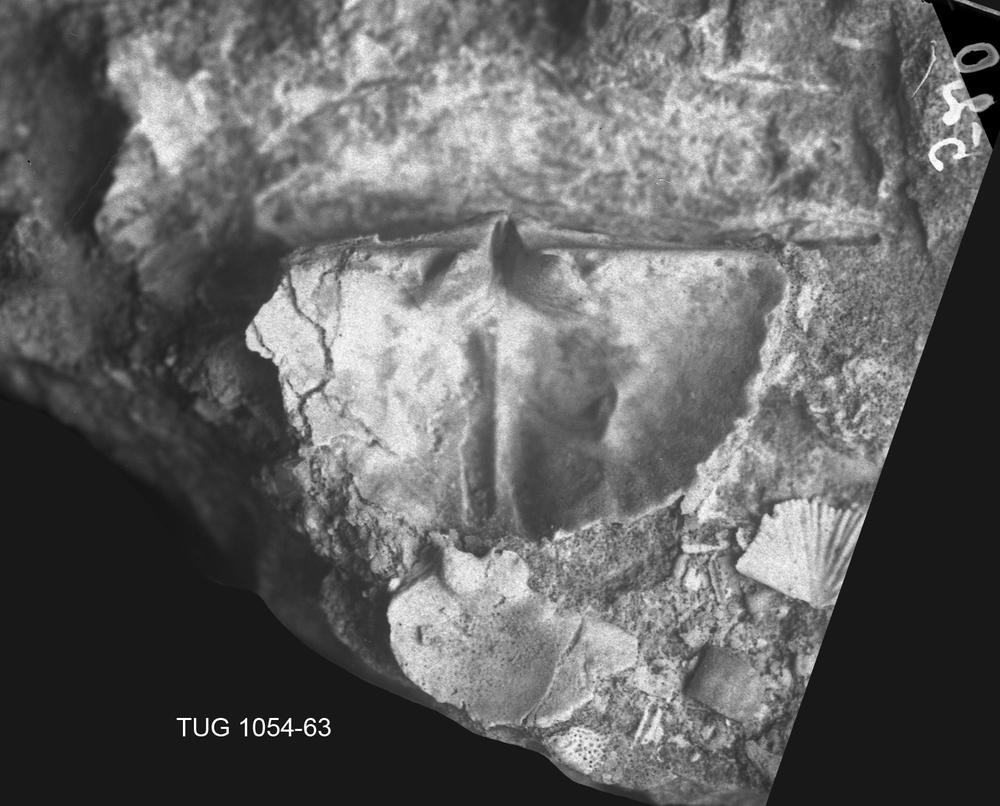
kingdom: Animalia
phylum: Brachiopoda
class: Rhynchonellata
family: Plectorthidae
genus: Platystrophia
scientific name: Platystrophia dentata
